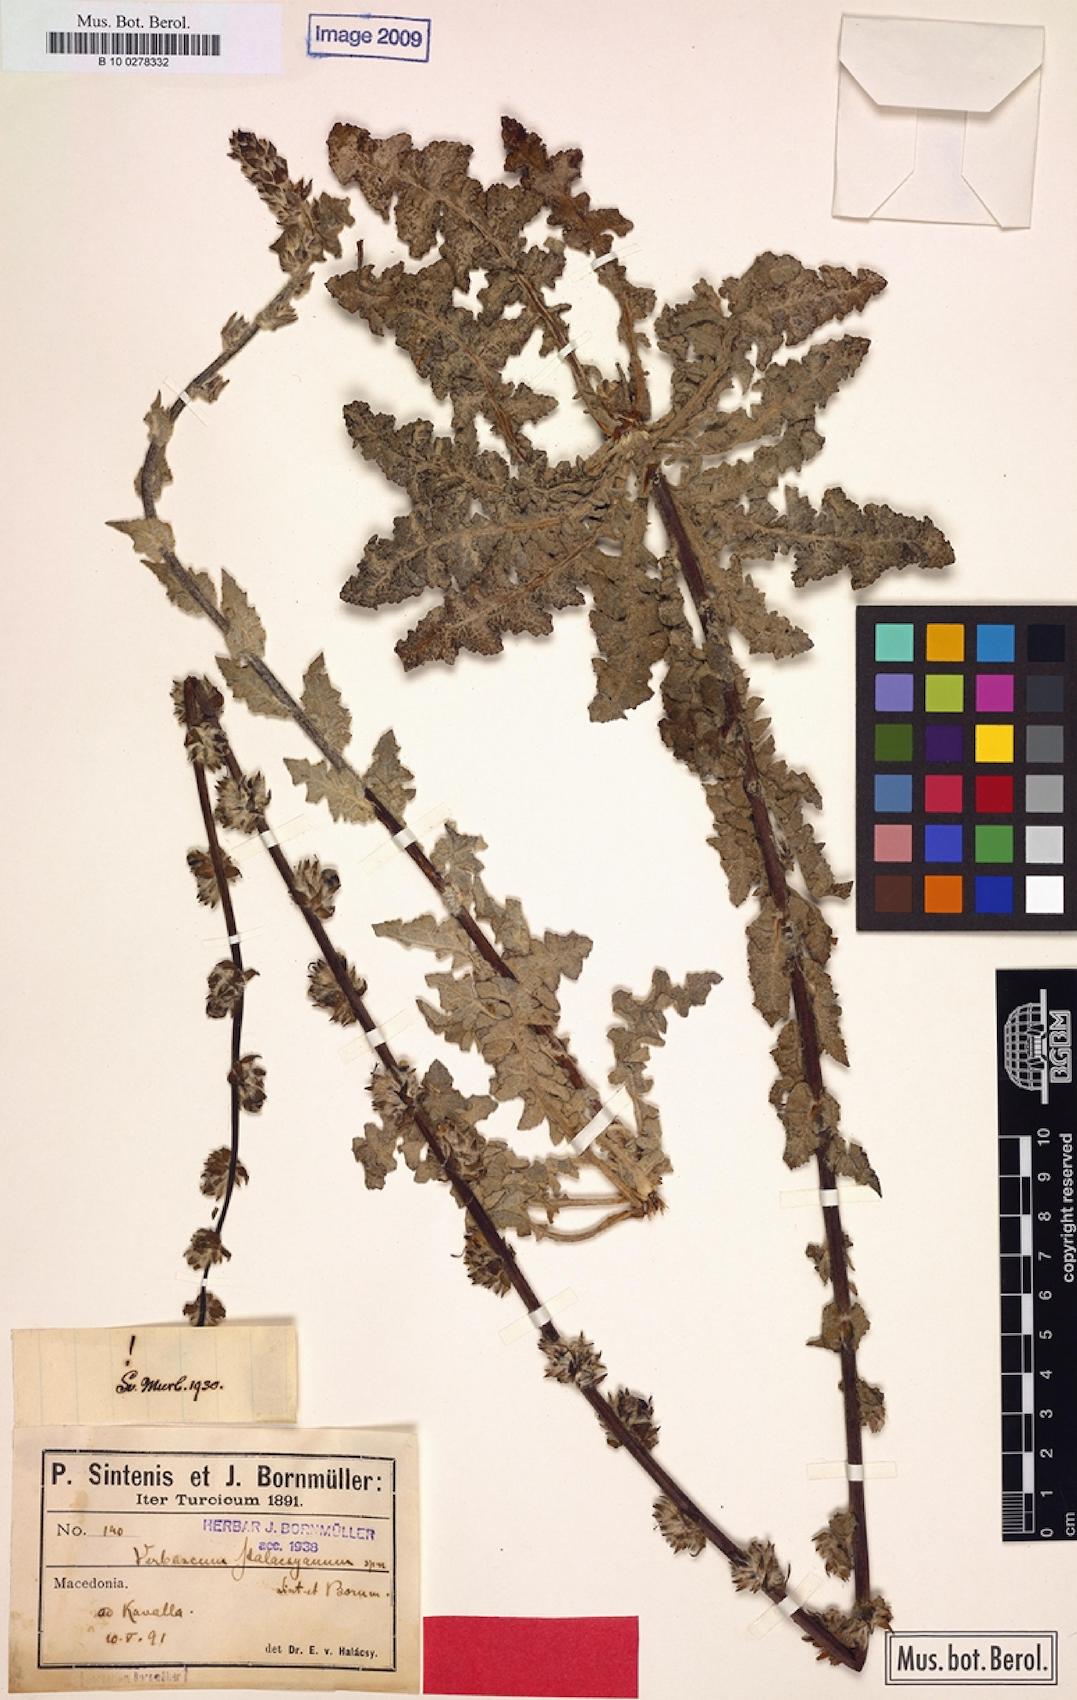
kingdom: Plantae
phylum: Tracheophyta
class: Magnoliopsida
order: Lamiales
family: Scrophulariaceae
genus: Verbascum
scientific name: Verbascum halacsyanum
